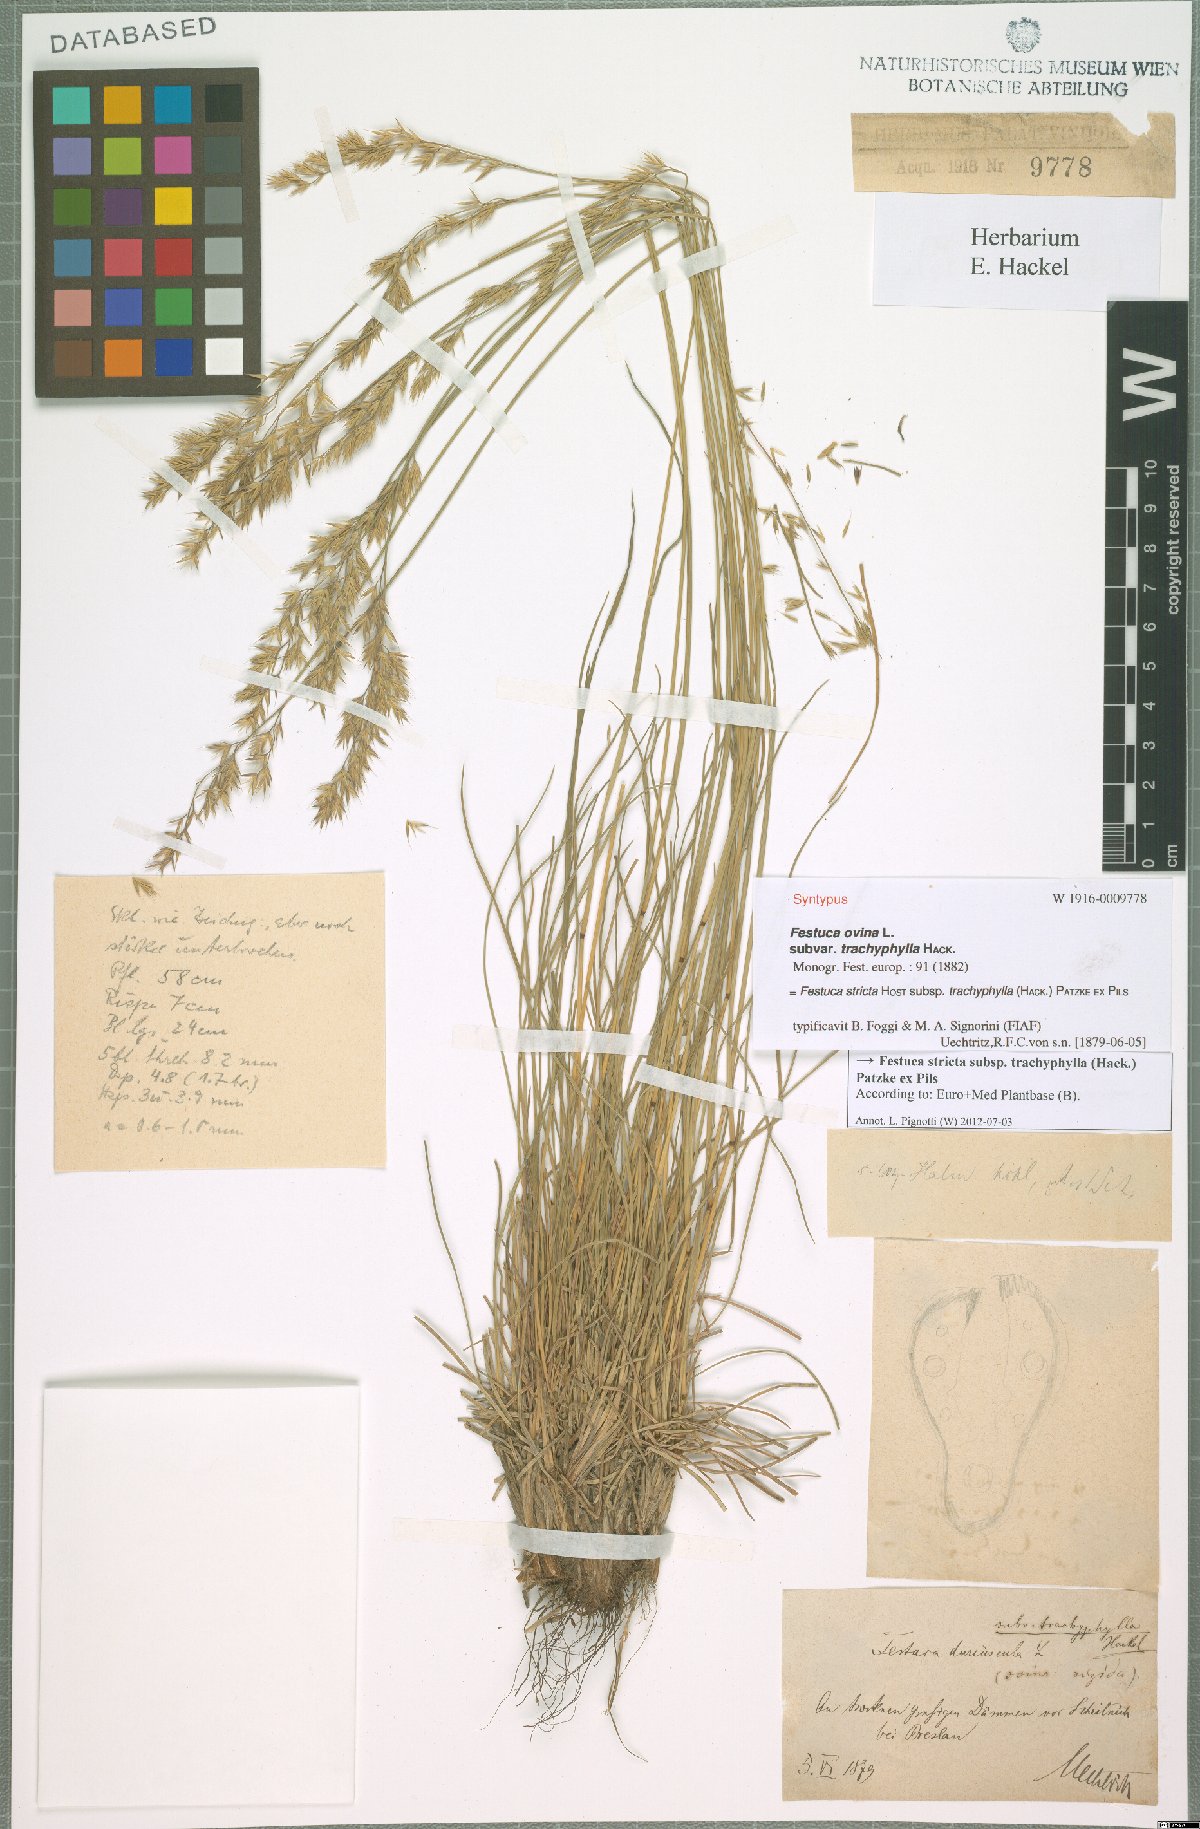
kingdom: Plantae
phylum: Tracheophyta
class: Liliopsida
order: Poales
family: Poaceae
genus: Festuca
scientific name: Festuca trachyphylla
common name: Hard fescue
